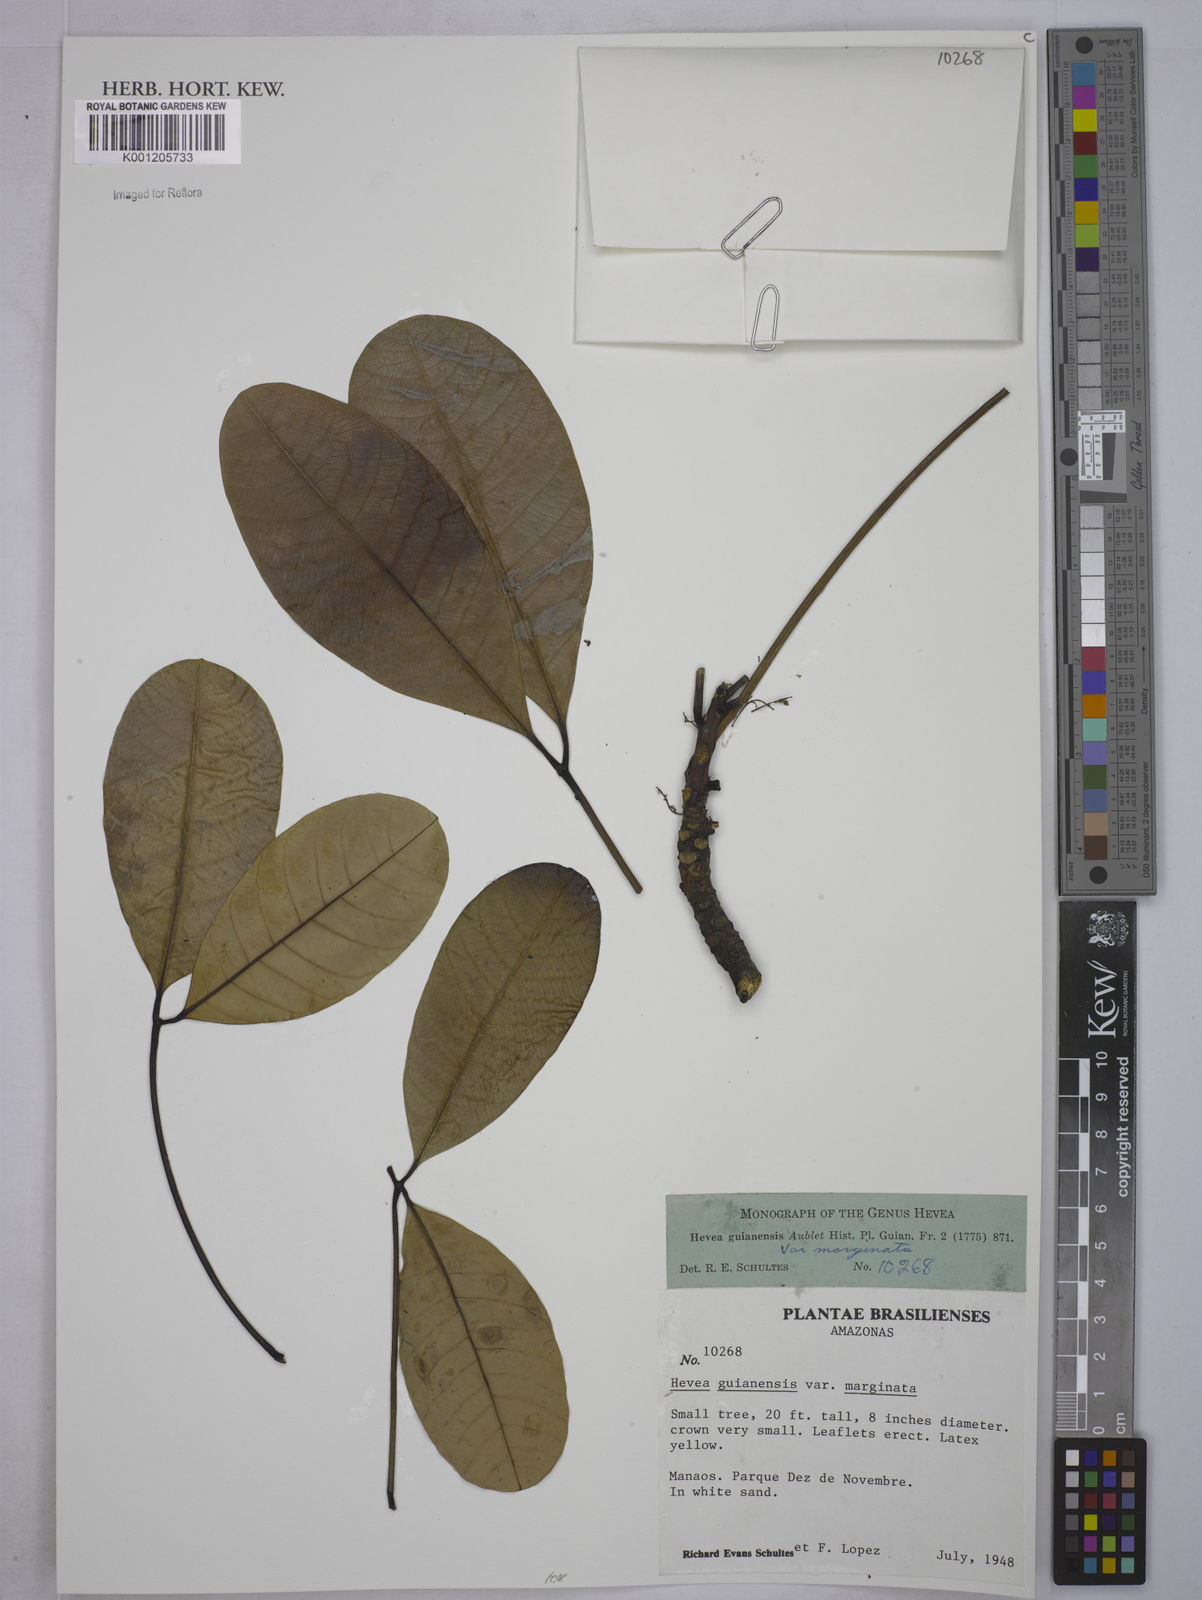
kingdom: Plantae
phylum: Tracheophyta
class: Magnoliopsida
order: Malpighiales
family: Euphorbiaceae
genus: Hevea
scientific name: Hevea guianensis
